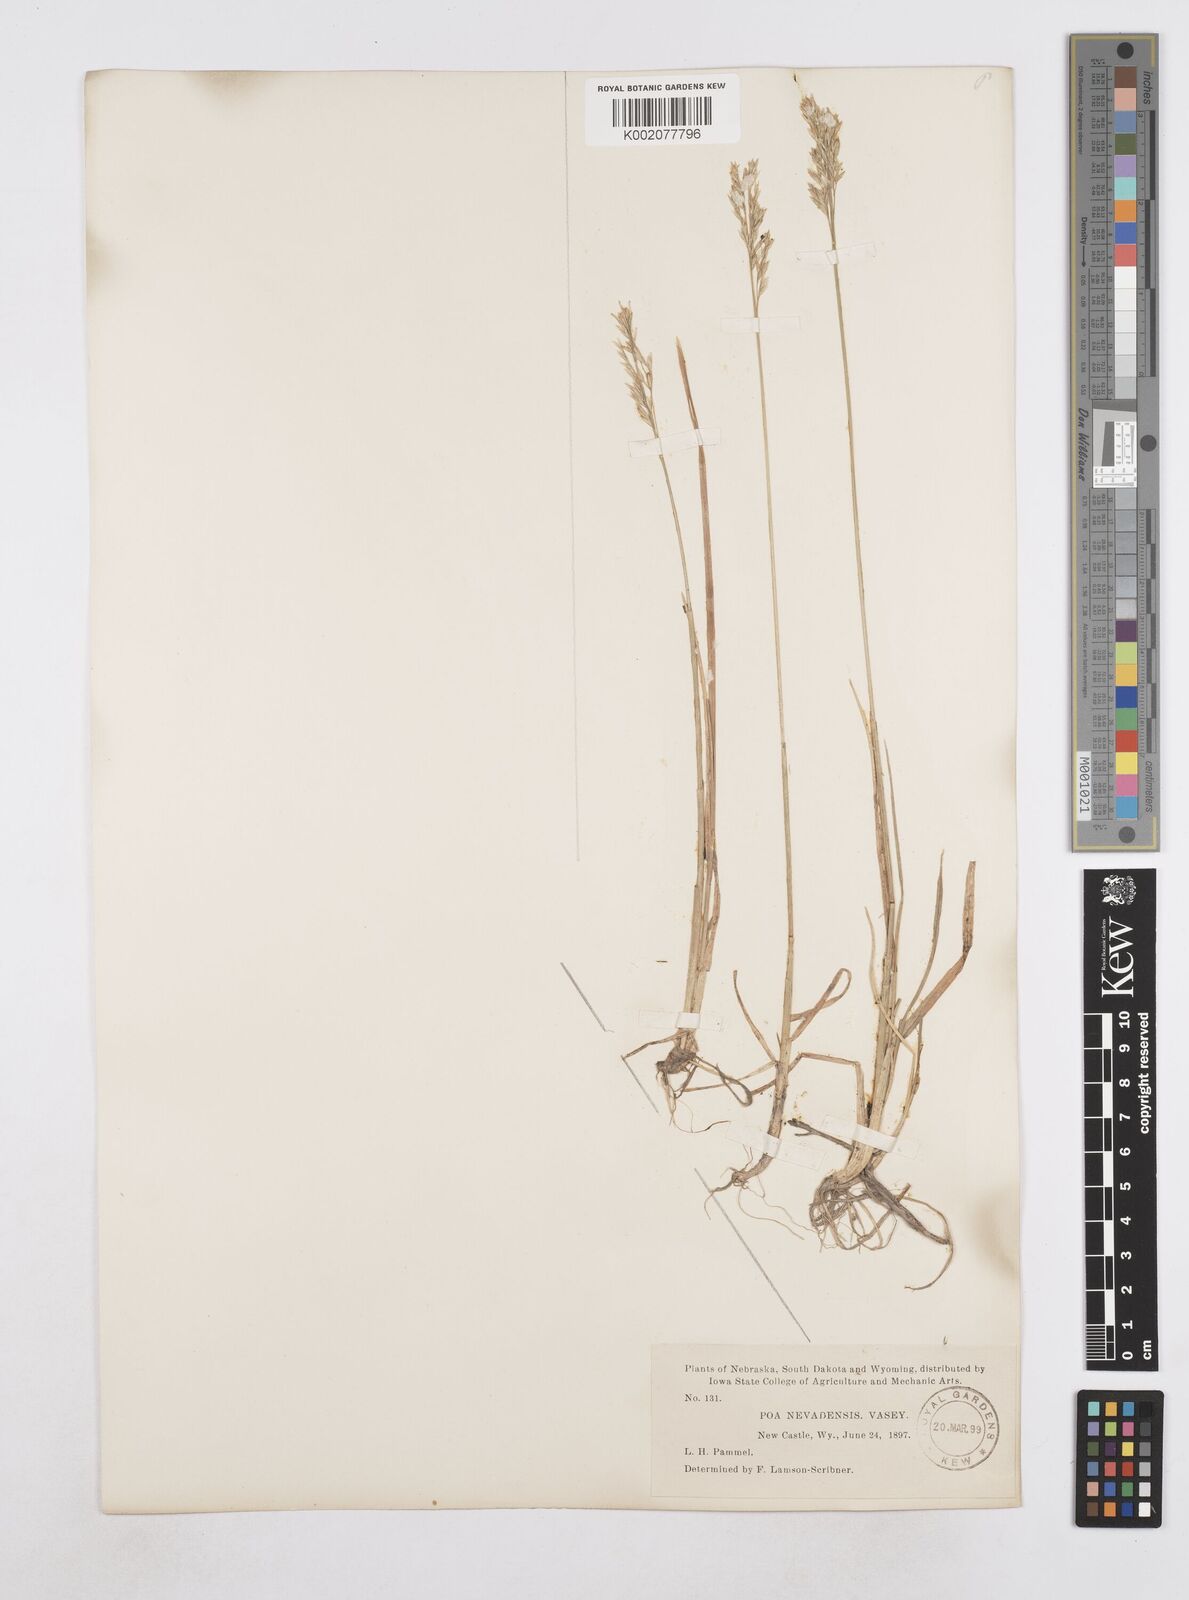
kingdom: Plantae
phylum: Tracheophyta
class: Liliopsida
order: Poales
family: Poaceae
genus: Poa
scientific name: Poa secunda
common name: Sandberg bluegrass
